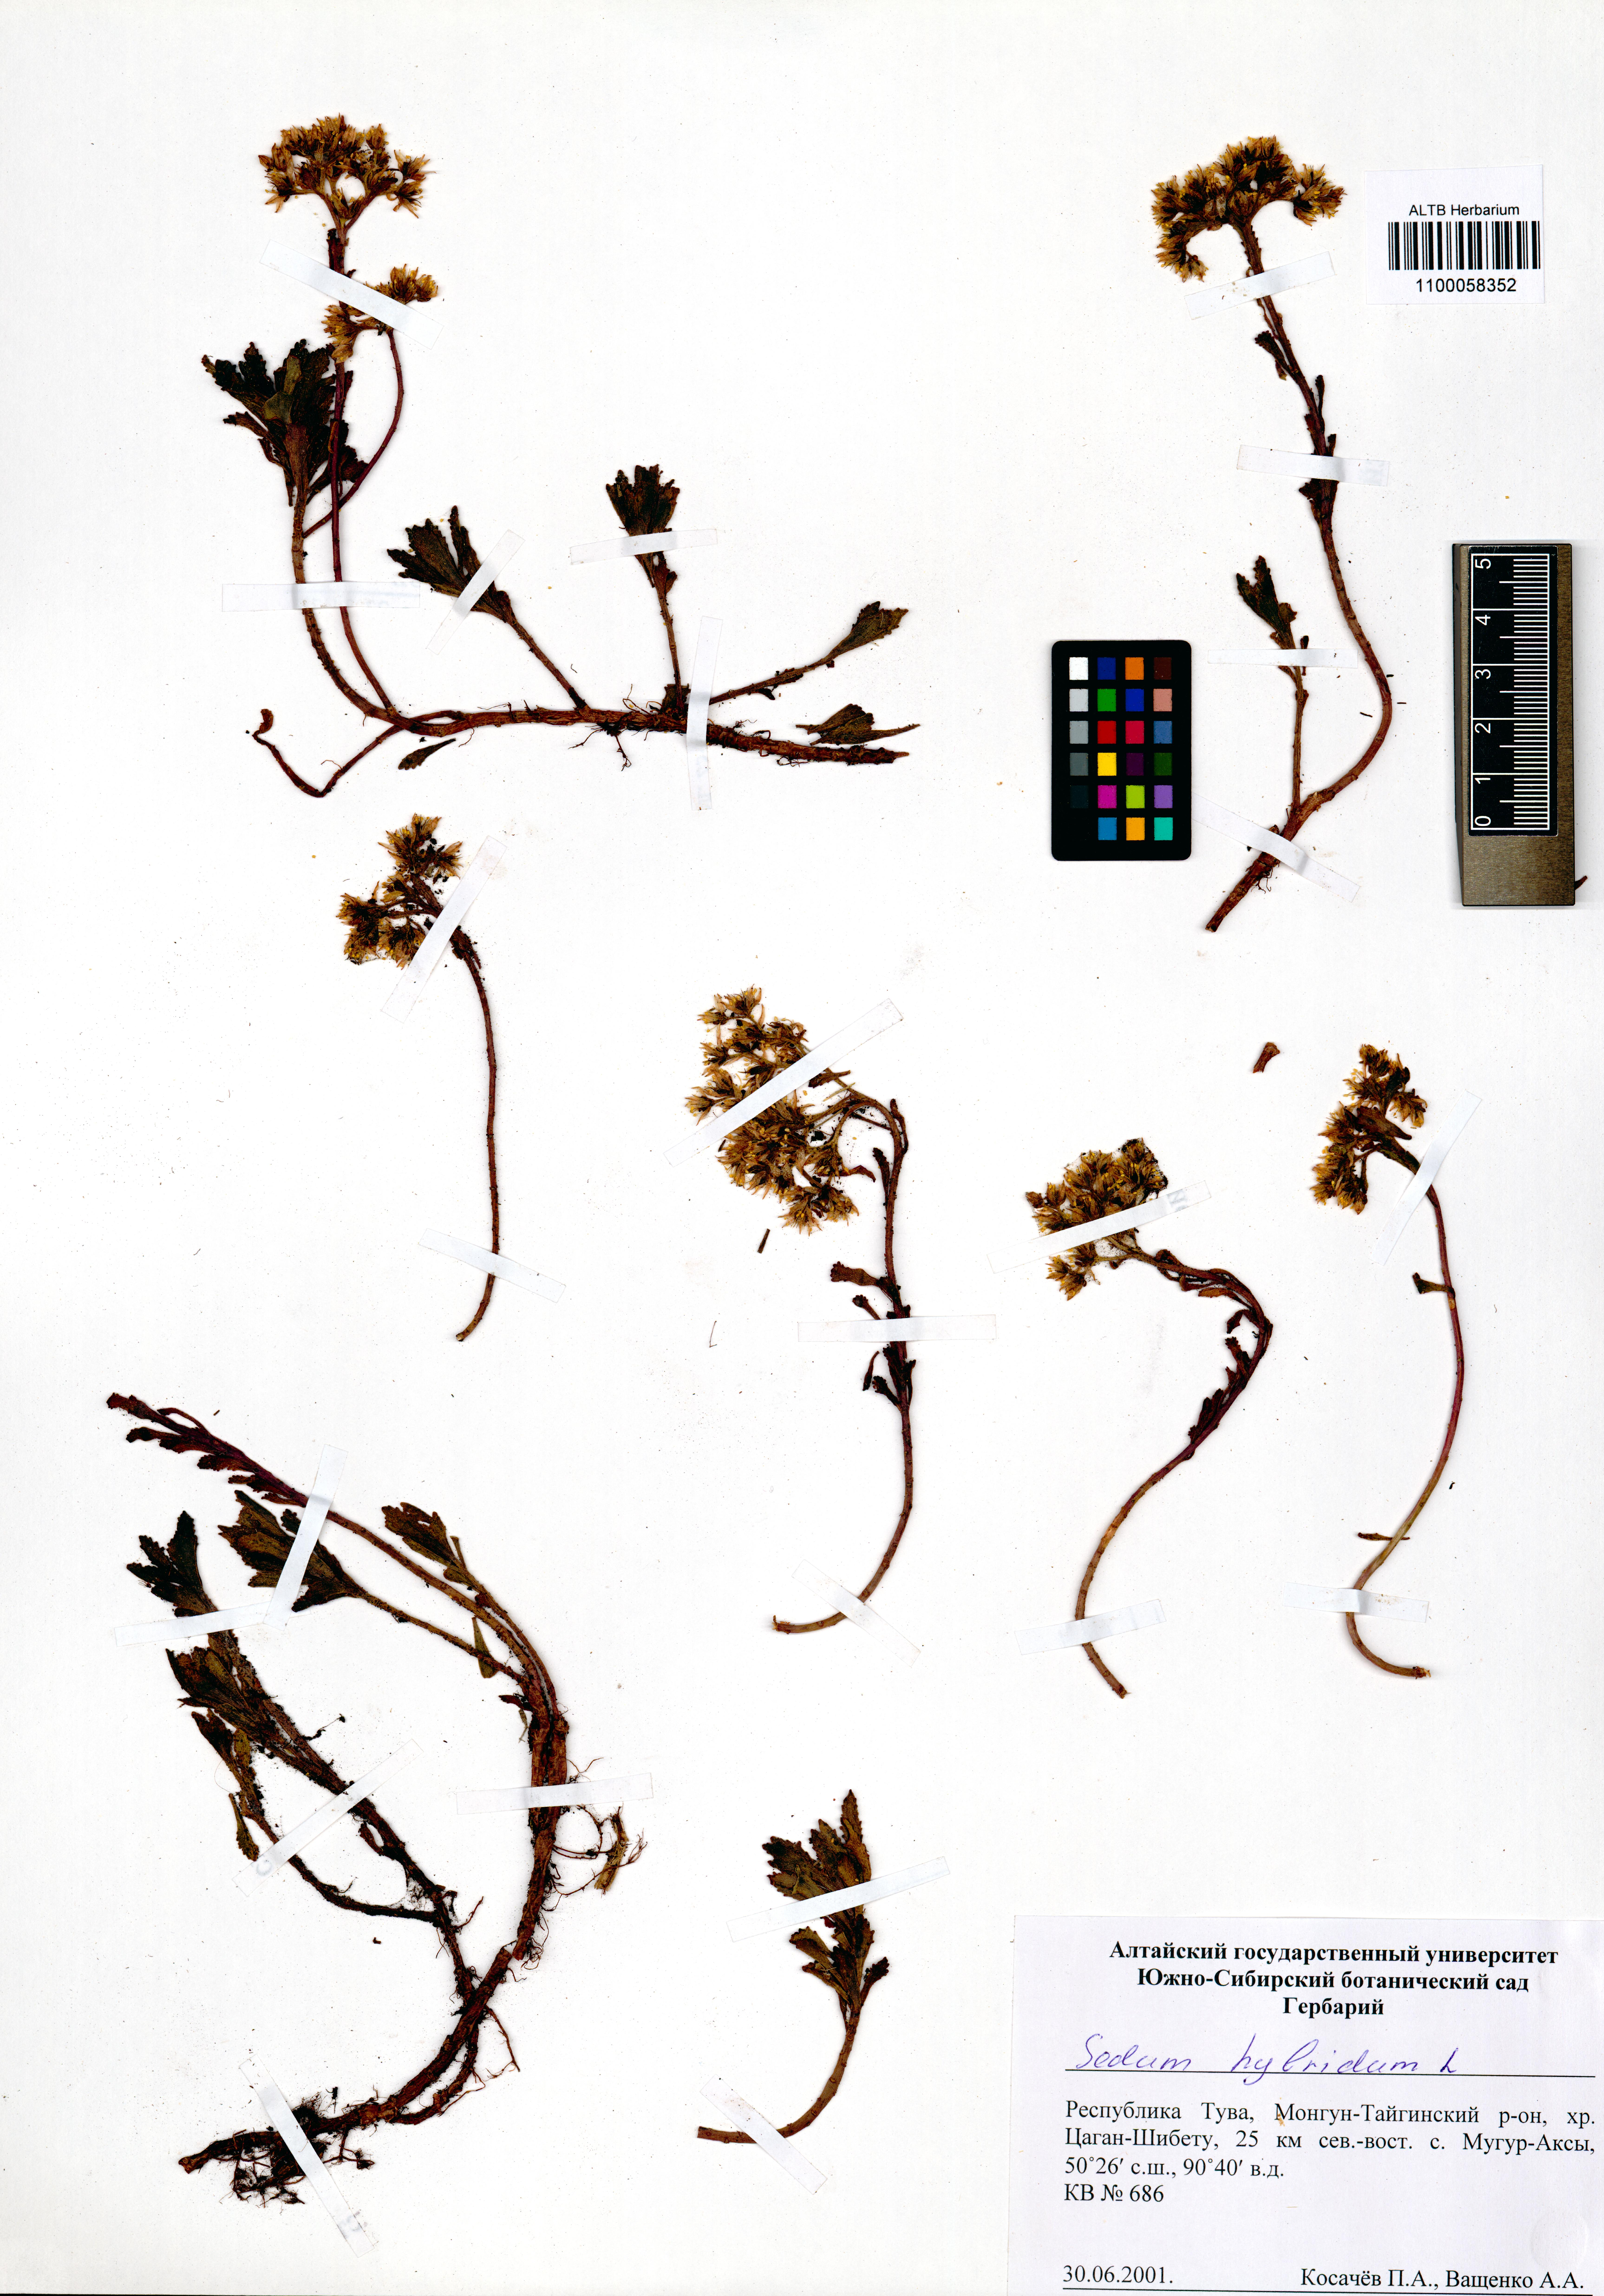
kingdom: Plantae
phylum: Tracheophyta
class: Magnoliopsida
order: Saxifragales
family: Crassulaceae
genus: Phedimus
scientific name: Phedimus hybridus
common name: Hybrid stonecrop
